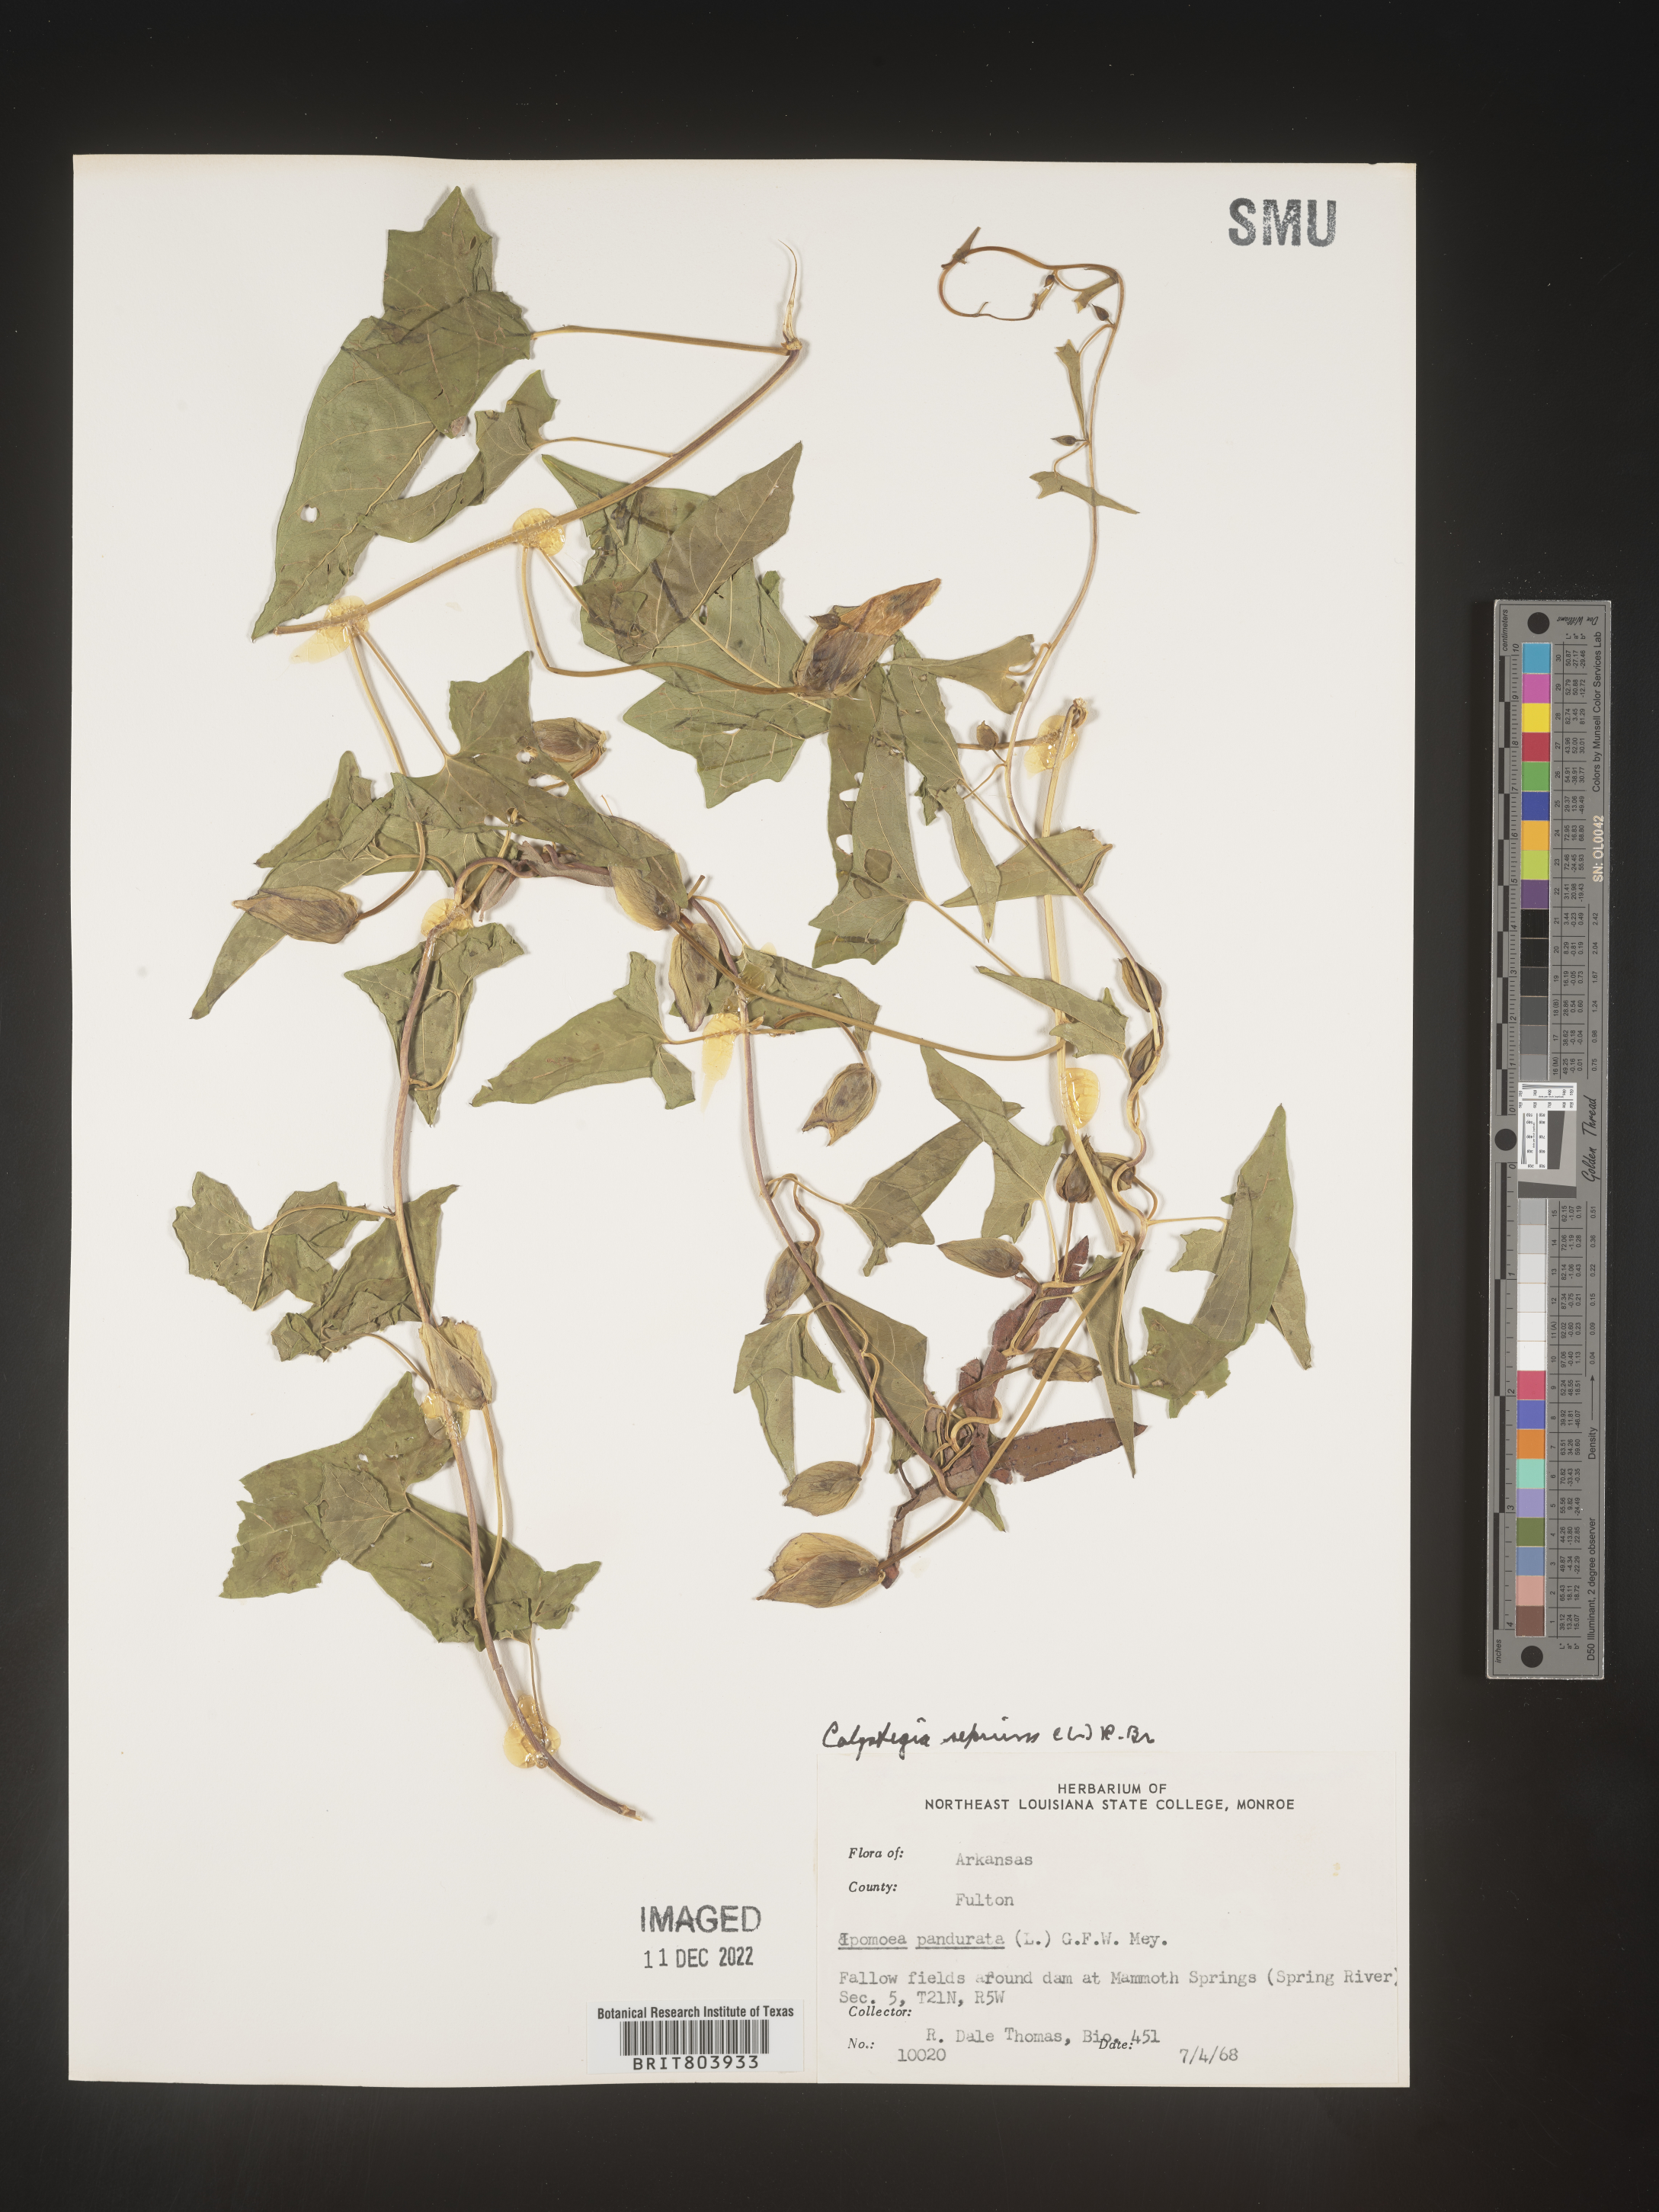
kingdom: Plantae
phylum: Tracheophyta
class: Magnoliopsida
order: Solanales
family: Convolvulaceae
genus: Calystegia
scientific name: Calystegia sepium
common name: Hedge bindweed
